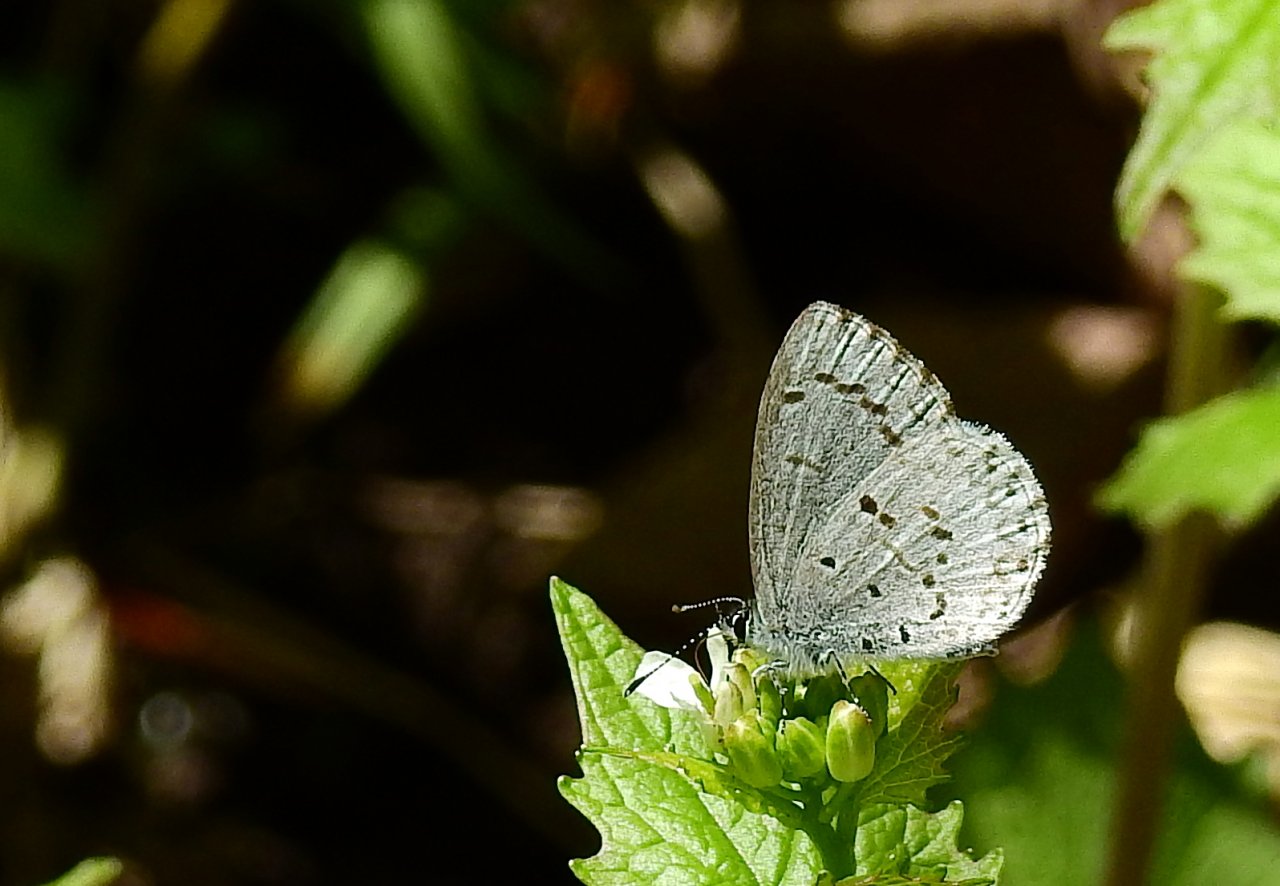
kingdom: Animalia
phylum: Arthropoda
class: Insecta
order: Lepidoptera
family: Lycaenidae
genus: Celastrina
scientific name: Celastrina lucia
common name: Northern Spring Azure
